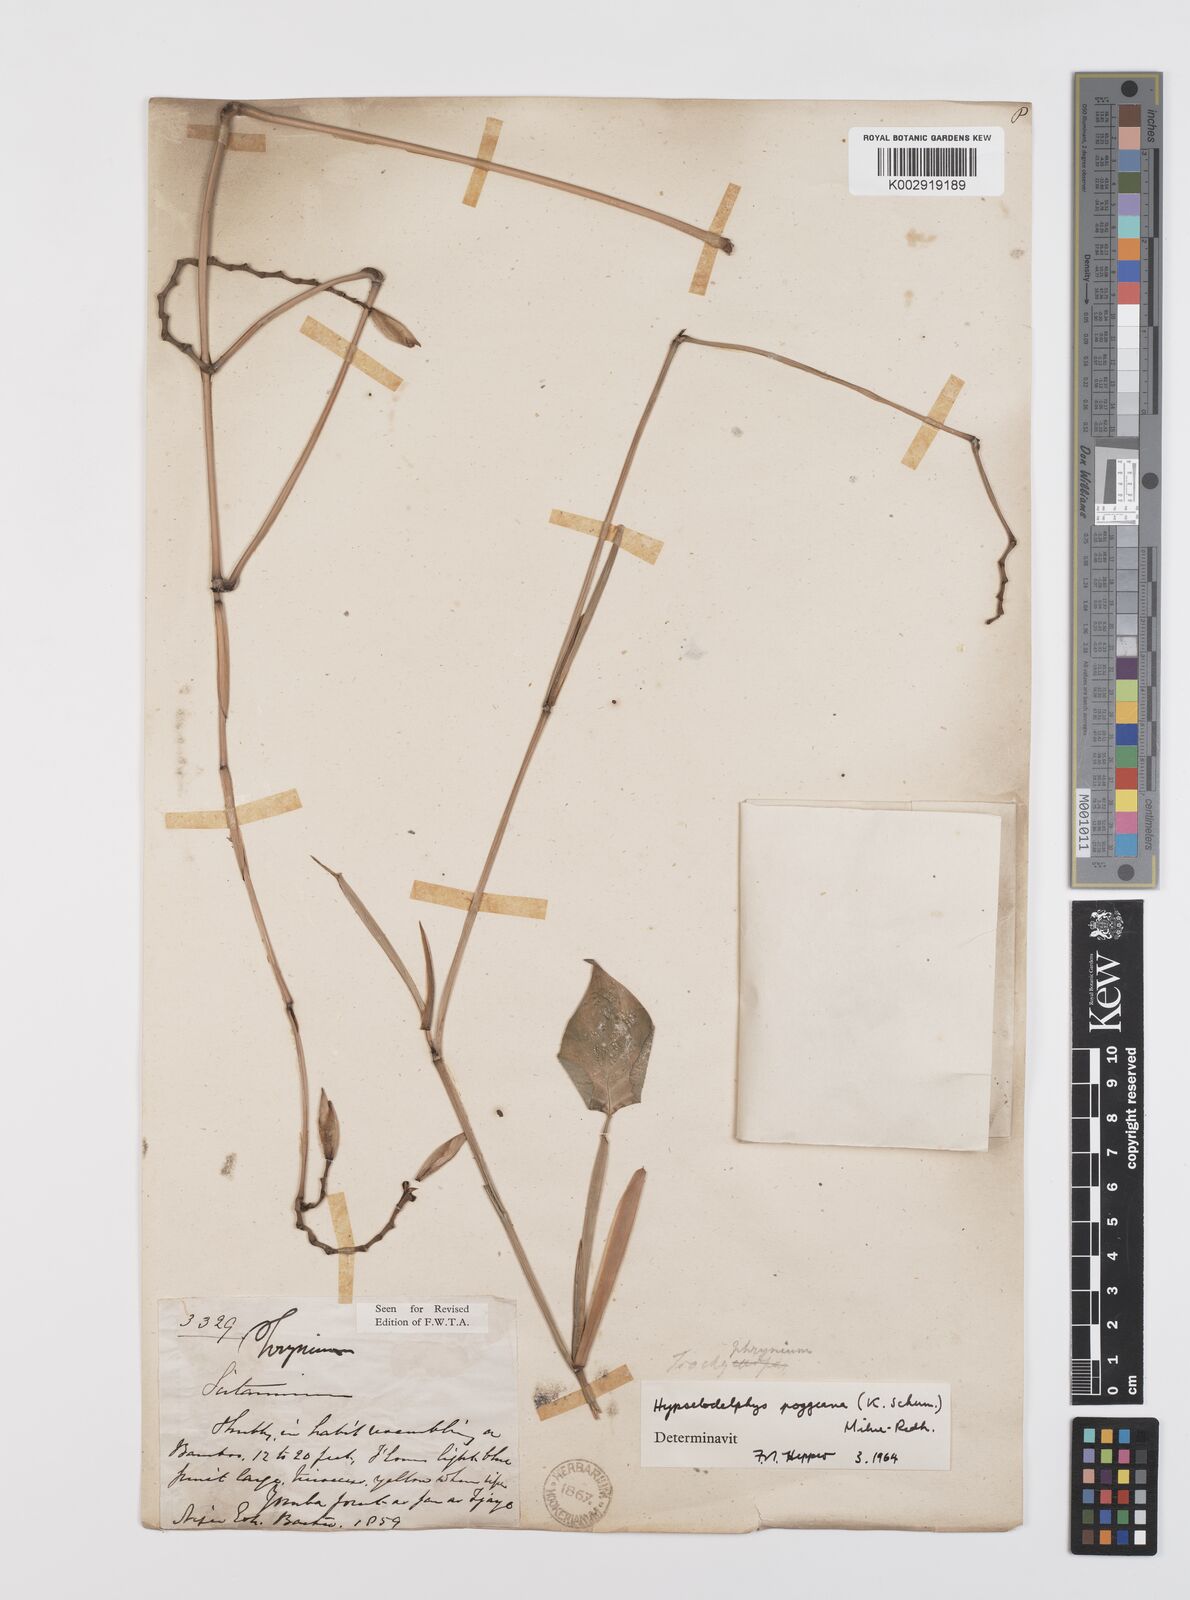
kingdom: Plantae
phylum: Tracheophyta
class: Liliopsida
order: Zingiberales
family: Marantaceae
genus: Hypselodelphys
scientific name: Hypselodelphys poggeana
